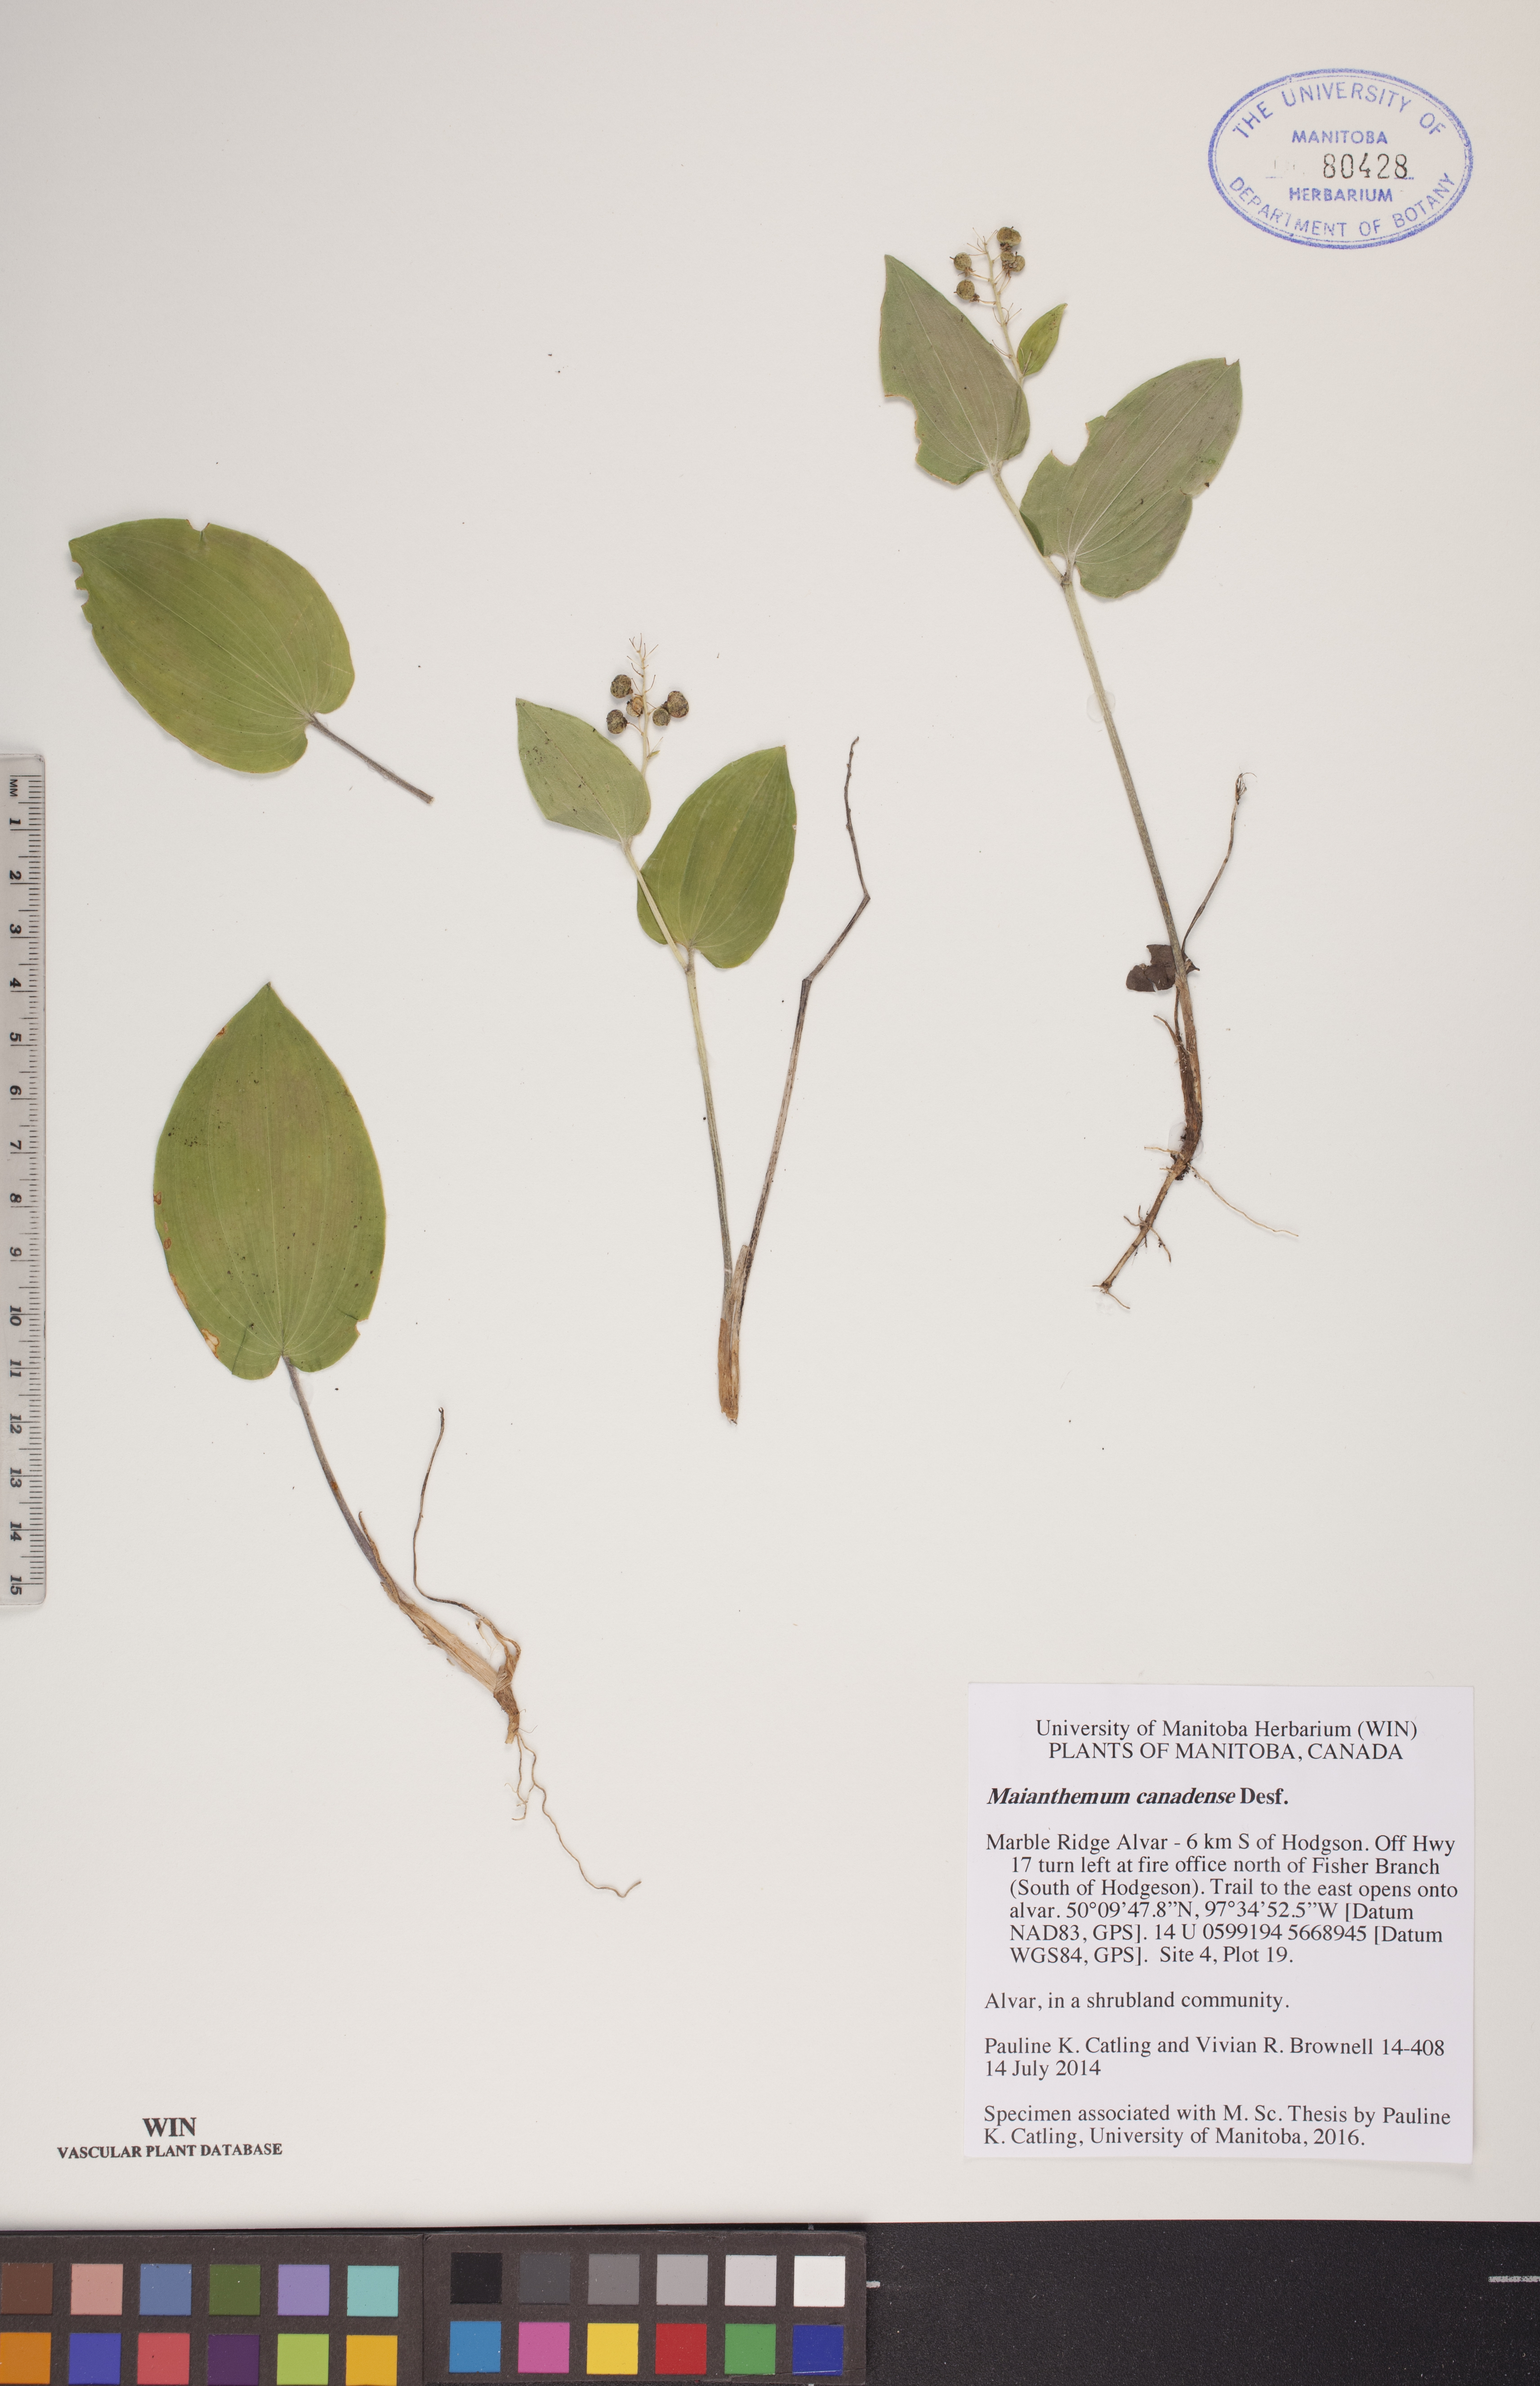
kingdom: Plantae
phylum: Tracheophyta
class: Liliopsida
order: Asparagales
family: Asparagaceae
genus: Maianthemum
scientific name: Maianthemum canadense
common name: False lily-of-the-valley
